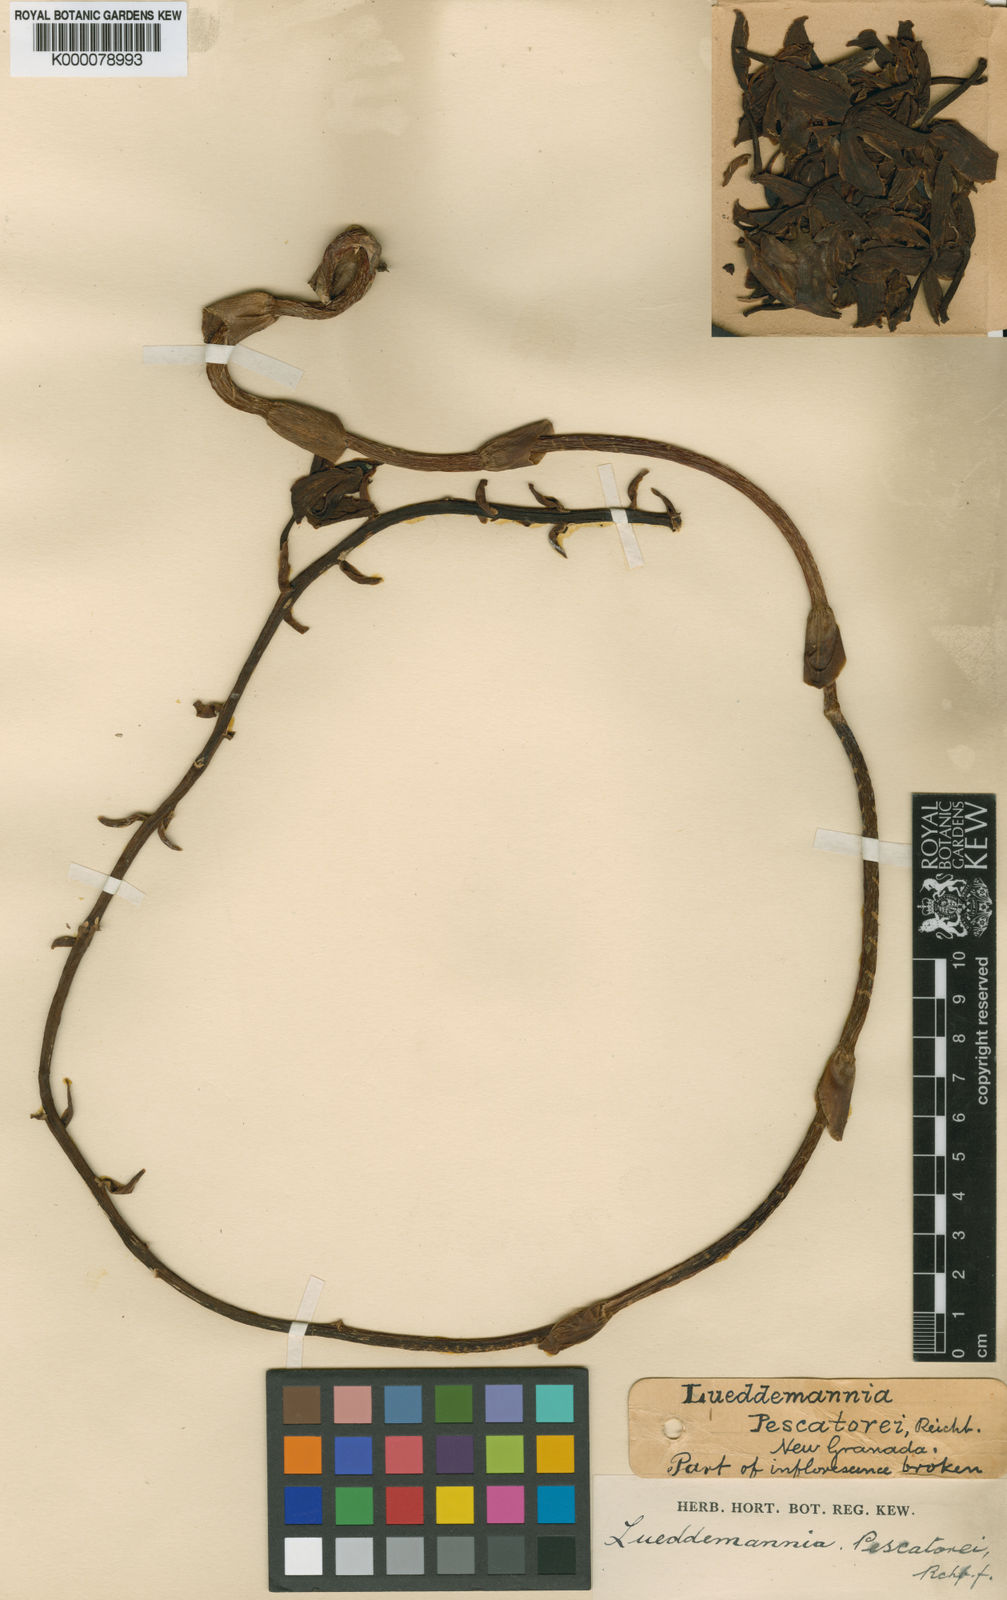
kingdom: Plantae
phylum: Tracheophyta
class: Liliopsida
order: Asparagales
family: Orchidaceae
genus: Cycnoches
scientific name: Cycnoches lehmannii
